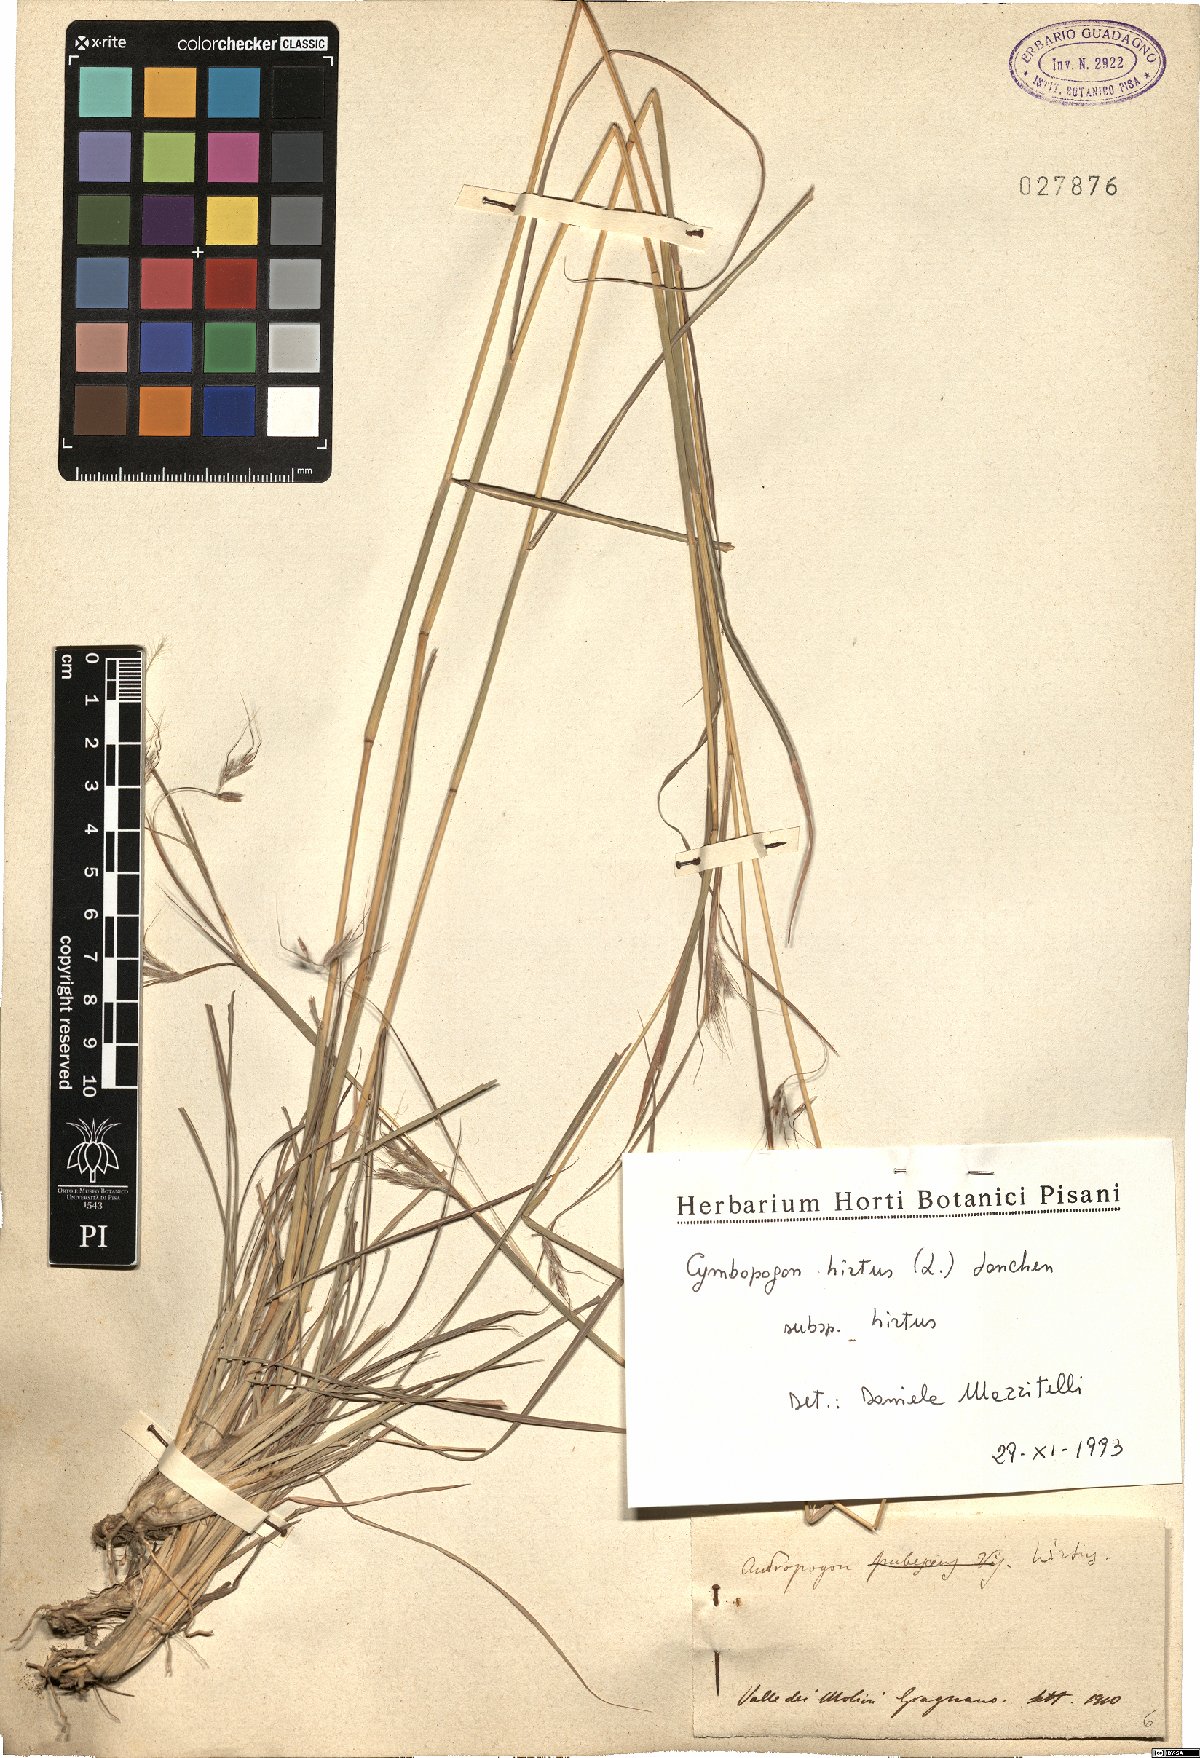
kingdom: Plantae
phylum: Tracheophyta
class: Liliopsida
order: Poales
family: Poaceae
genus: Cymbopogon
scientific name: Cymbopogon hirtus
